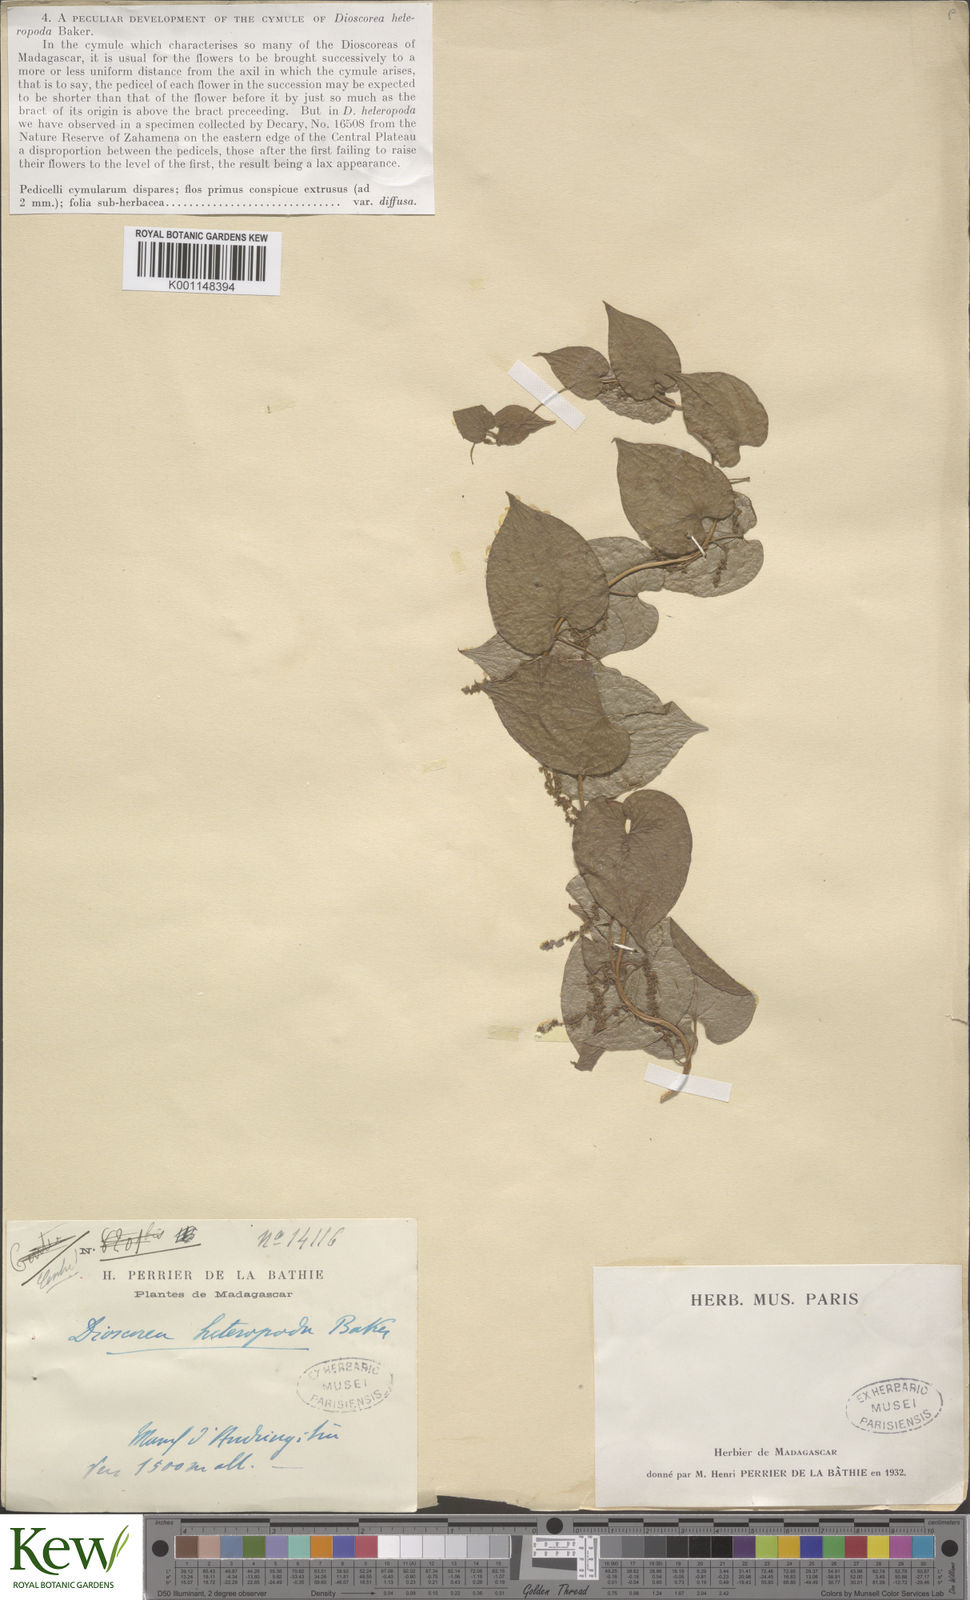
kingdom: Plantae
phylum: Tracheophyta
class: Liliopsida
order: Dioscoreales
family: Dioscoreaceae
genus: Dioscorea
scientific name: Dioscorea heteropoda
